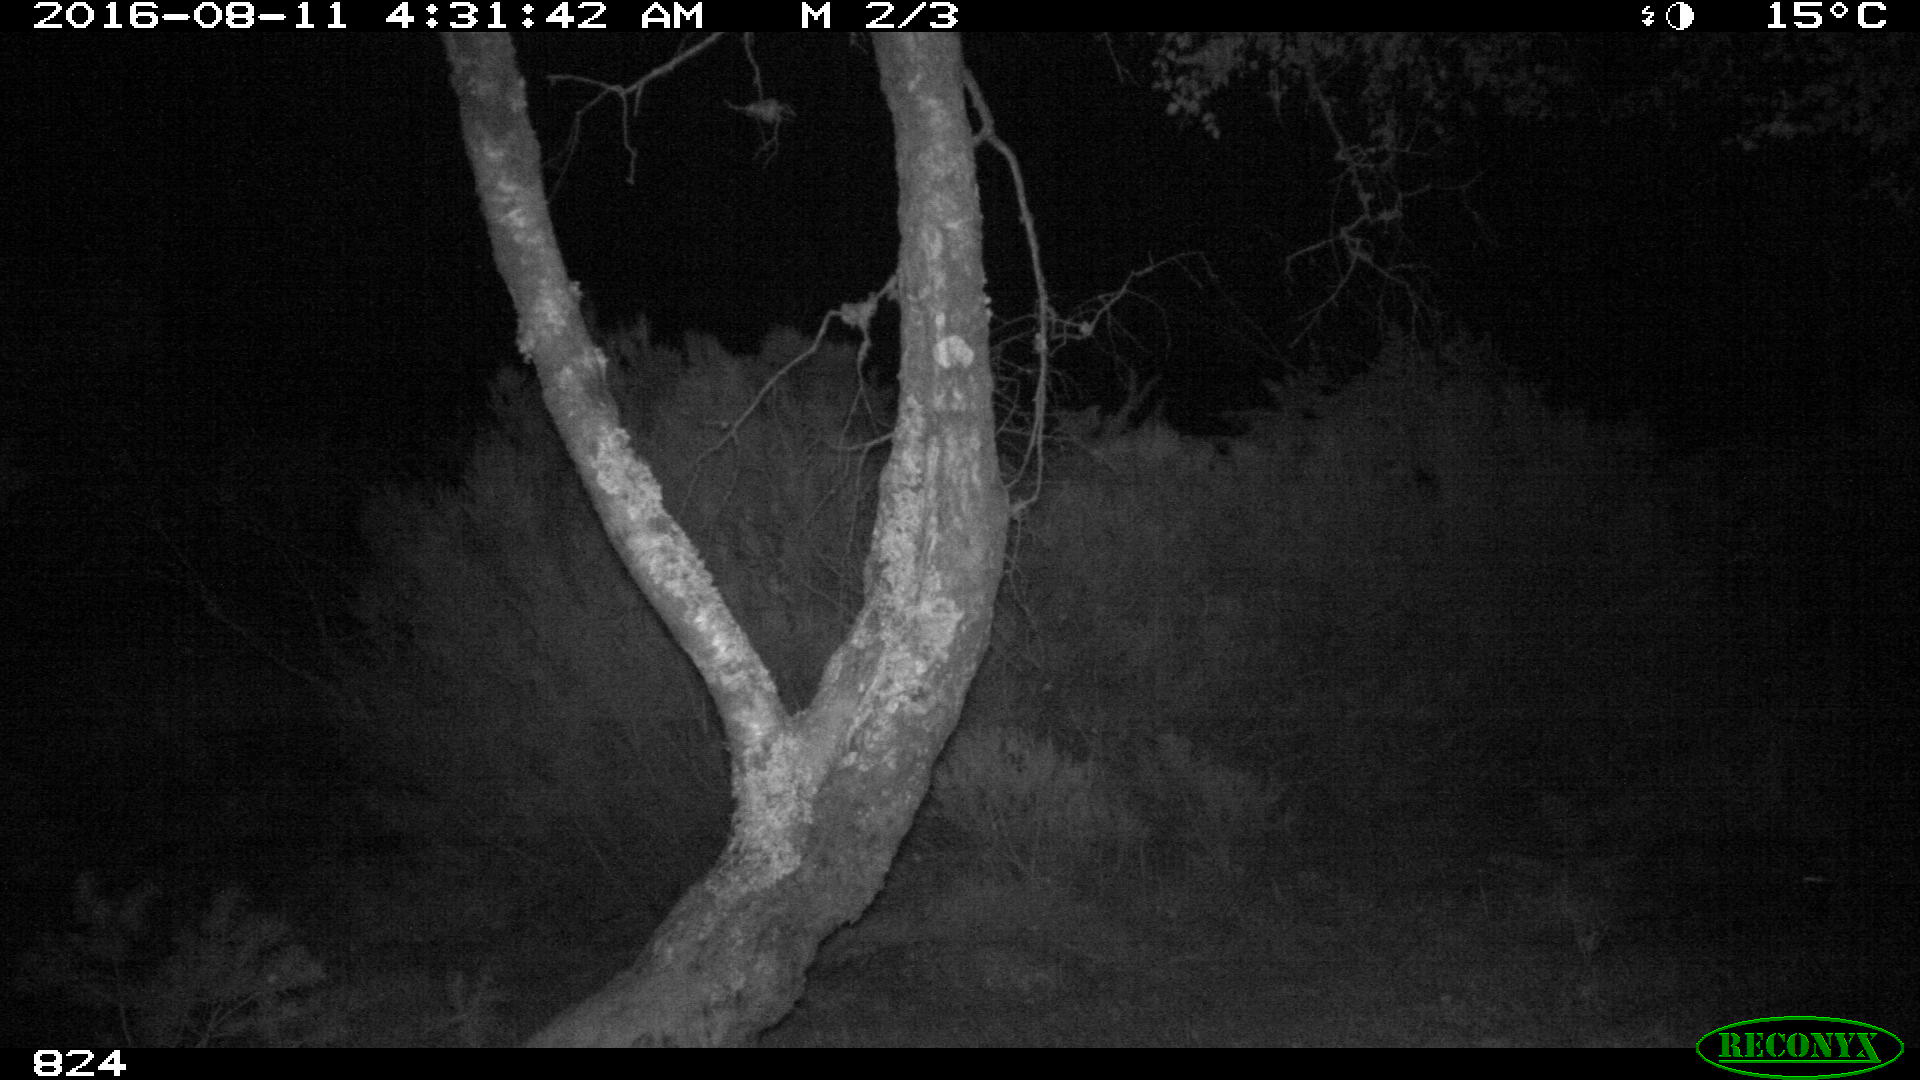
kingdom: Animalia
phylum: Chordata
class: Mammalia
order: Artiodactyla
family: Suidae
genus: Sus
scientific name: Sus scrofa
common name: Wild boar
